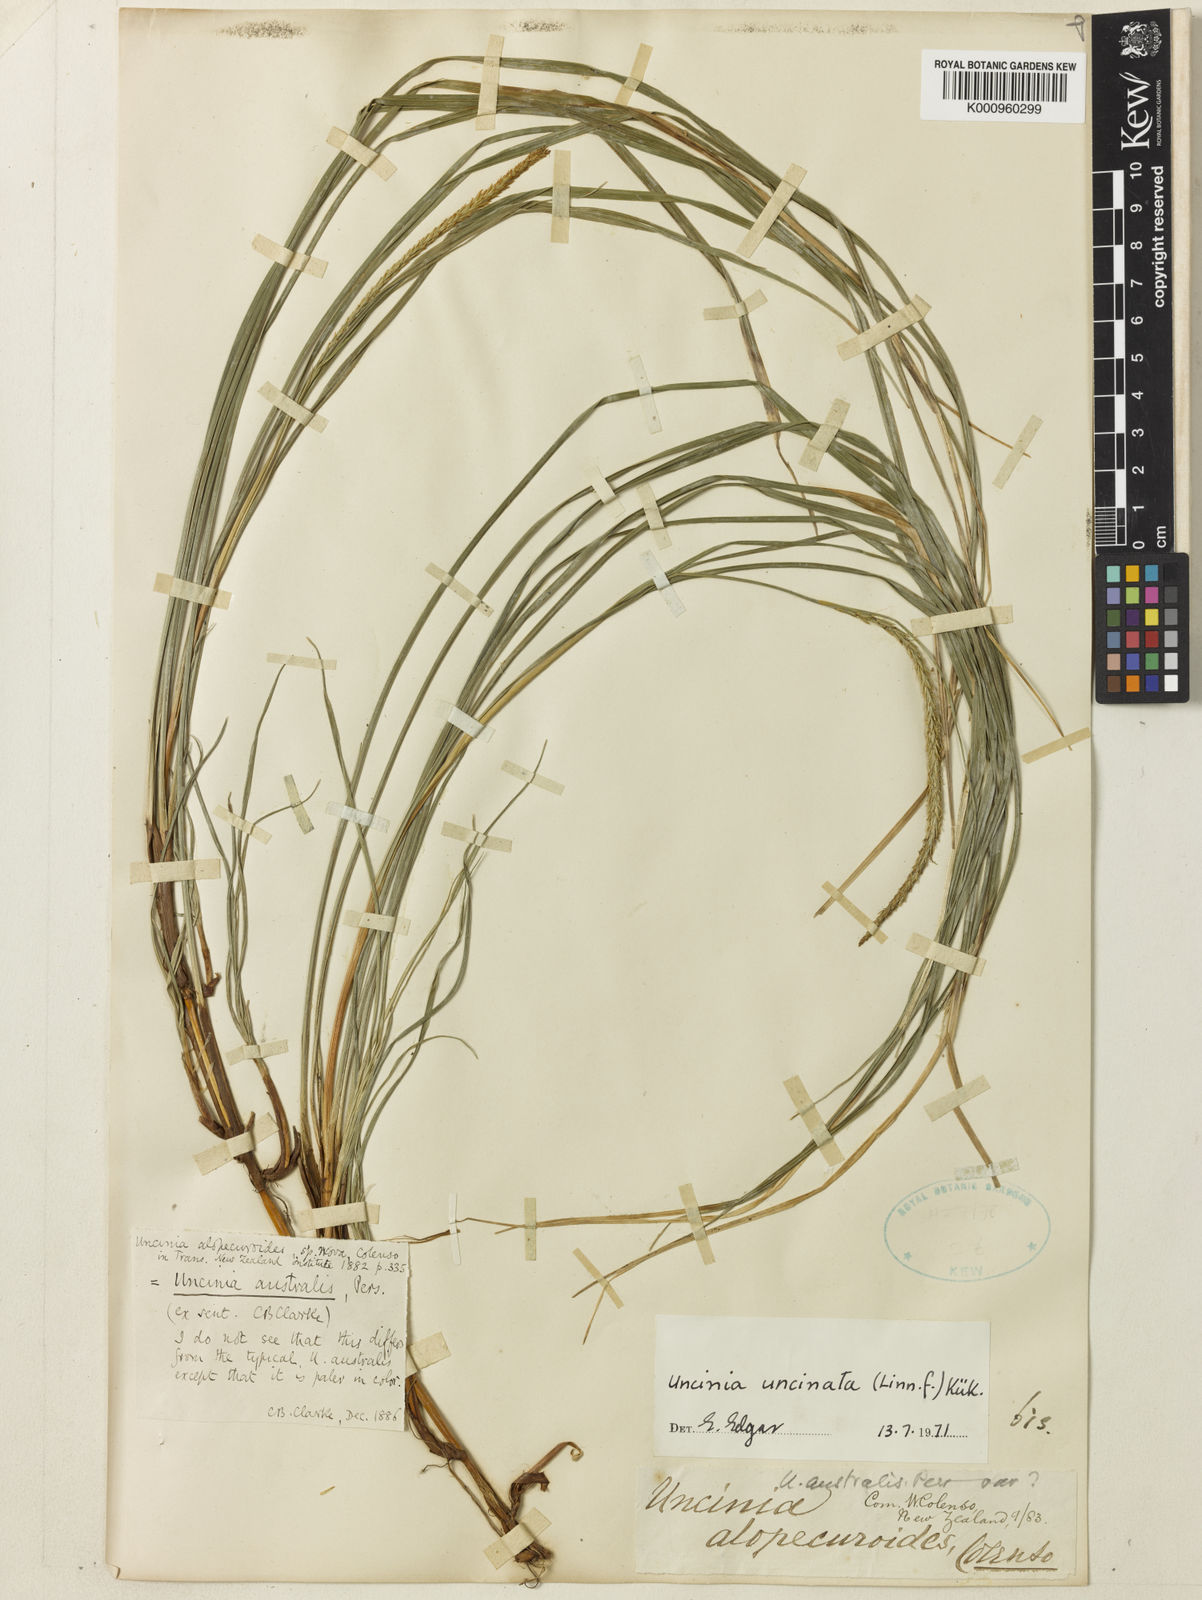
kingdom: Fungi
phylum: Ascomycota
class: Leotiomycetes
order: Helotiales
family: Hamatocanthoscyphaceae
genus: Uncinia
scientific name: Uncinia
